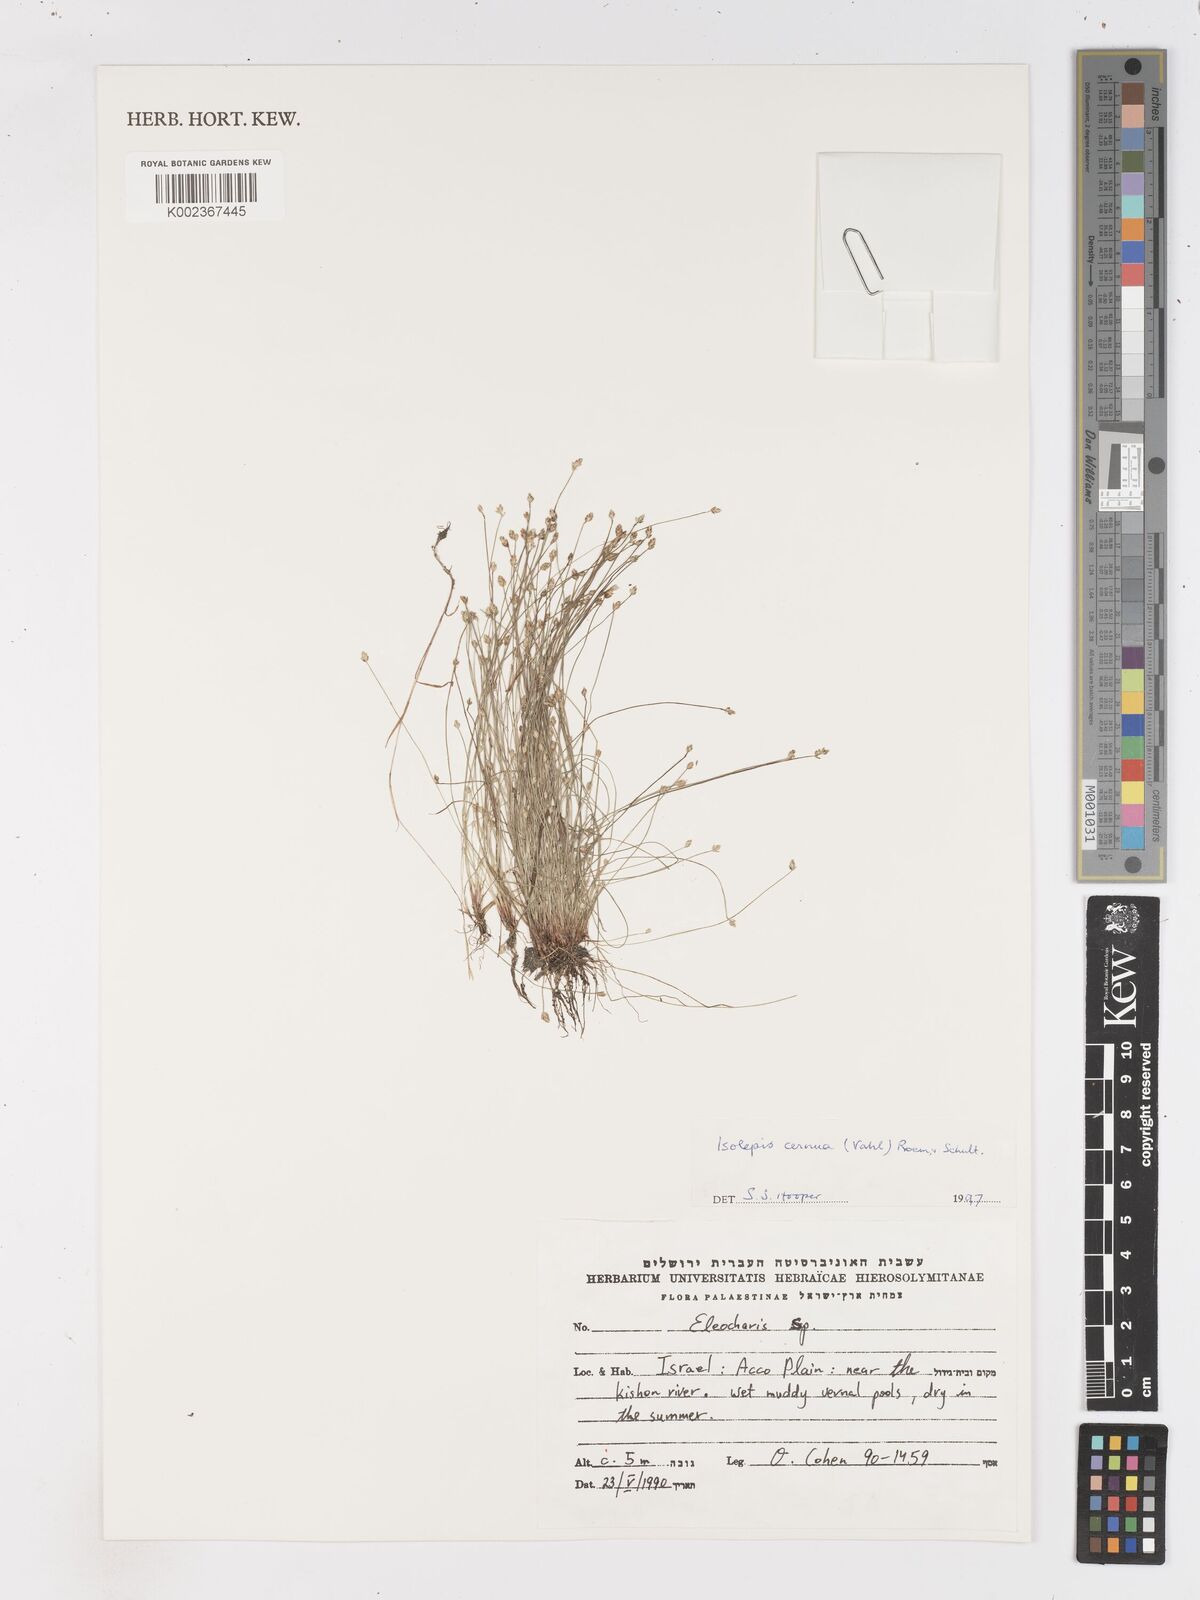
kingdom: Plantae
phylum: Tracheophyta
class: Liliopsida
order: Poales
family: Cyperaceae
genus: Isolepis
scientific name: Isolepis cernua
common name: Slender club-rush
